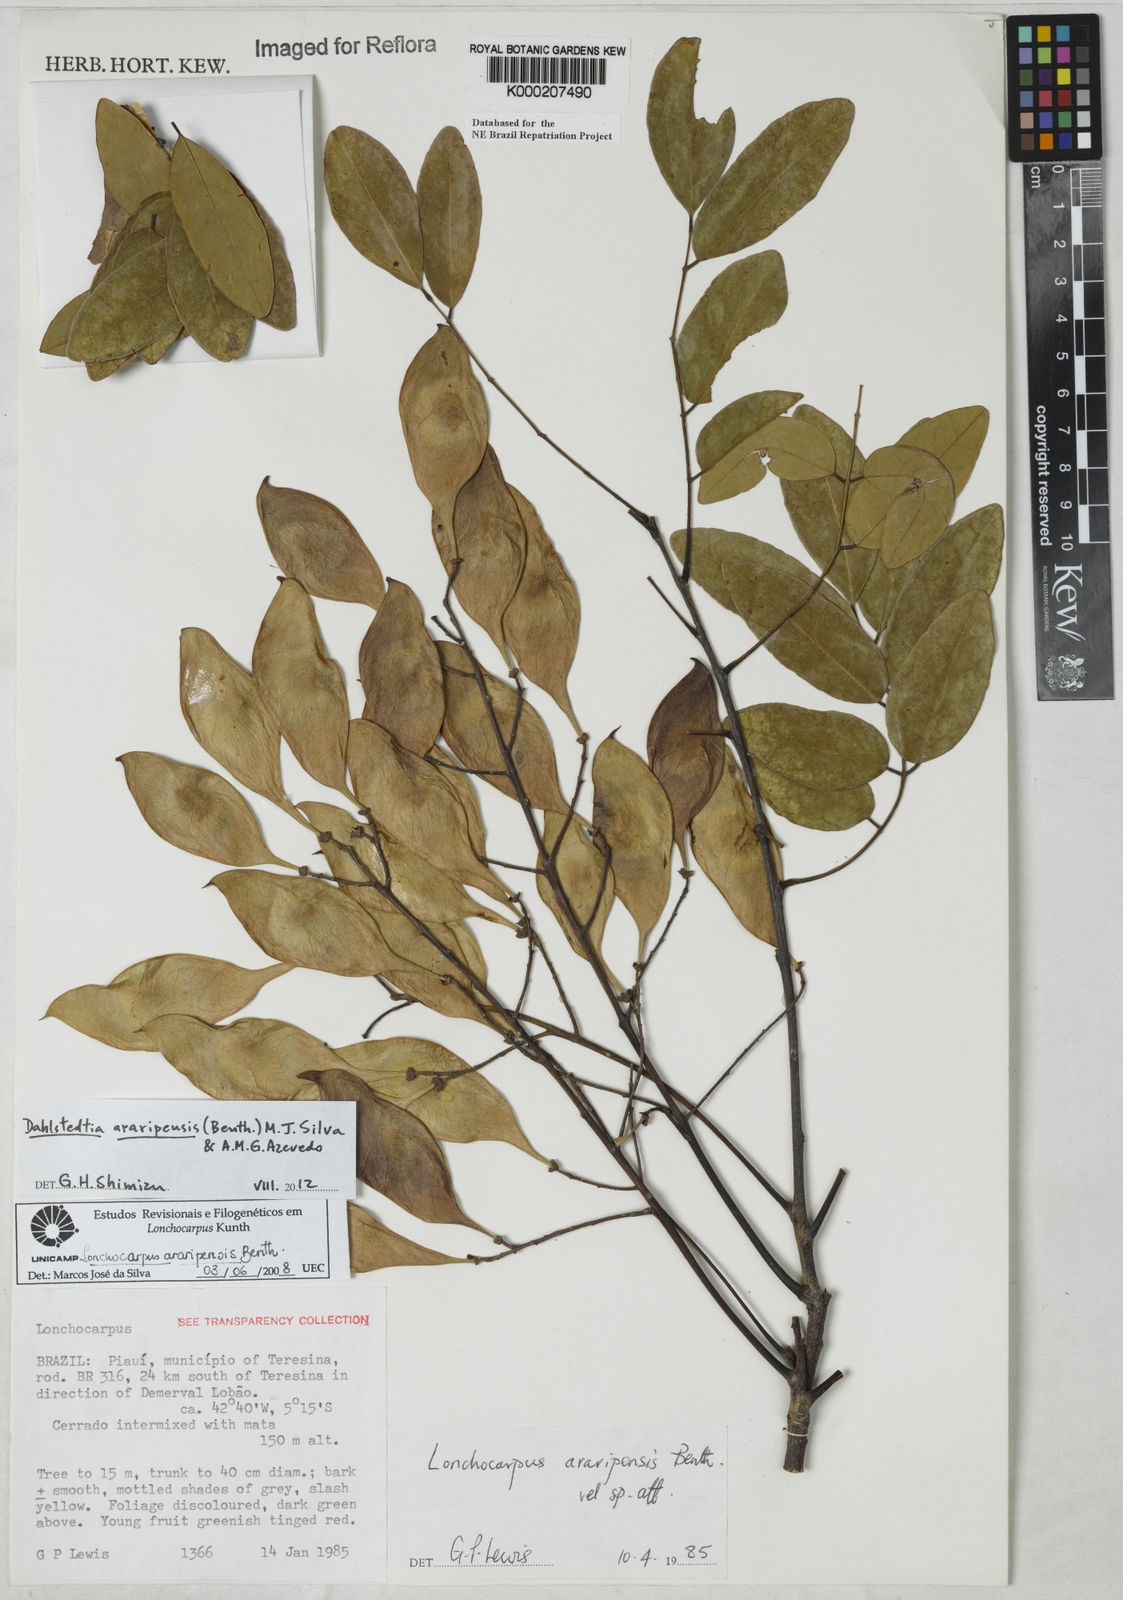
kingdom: Plantae
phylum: Tracheophyta
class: Magnoliopsida
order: Fabales
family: Fabaceae
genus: Dahlstedtia
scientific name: Dahlstedtia araripensis
